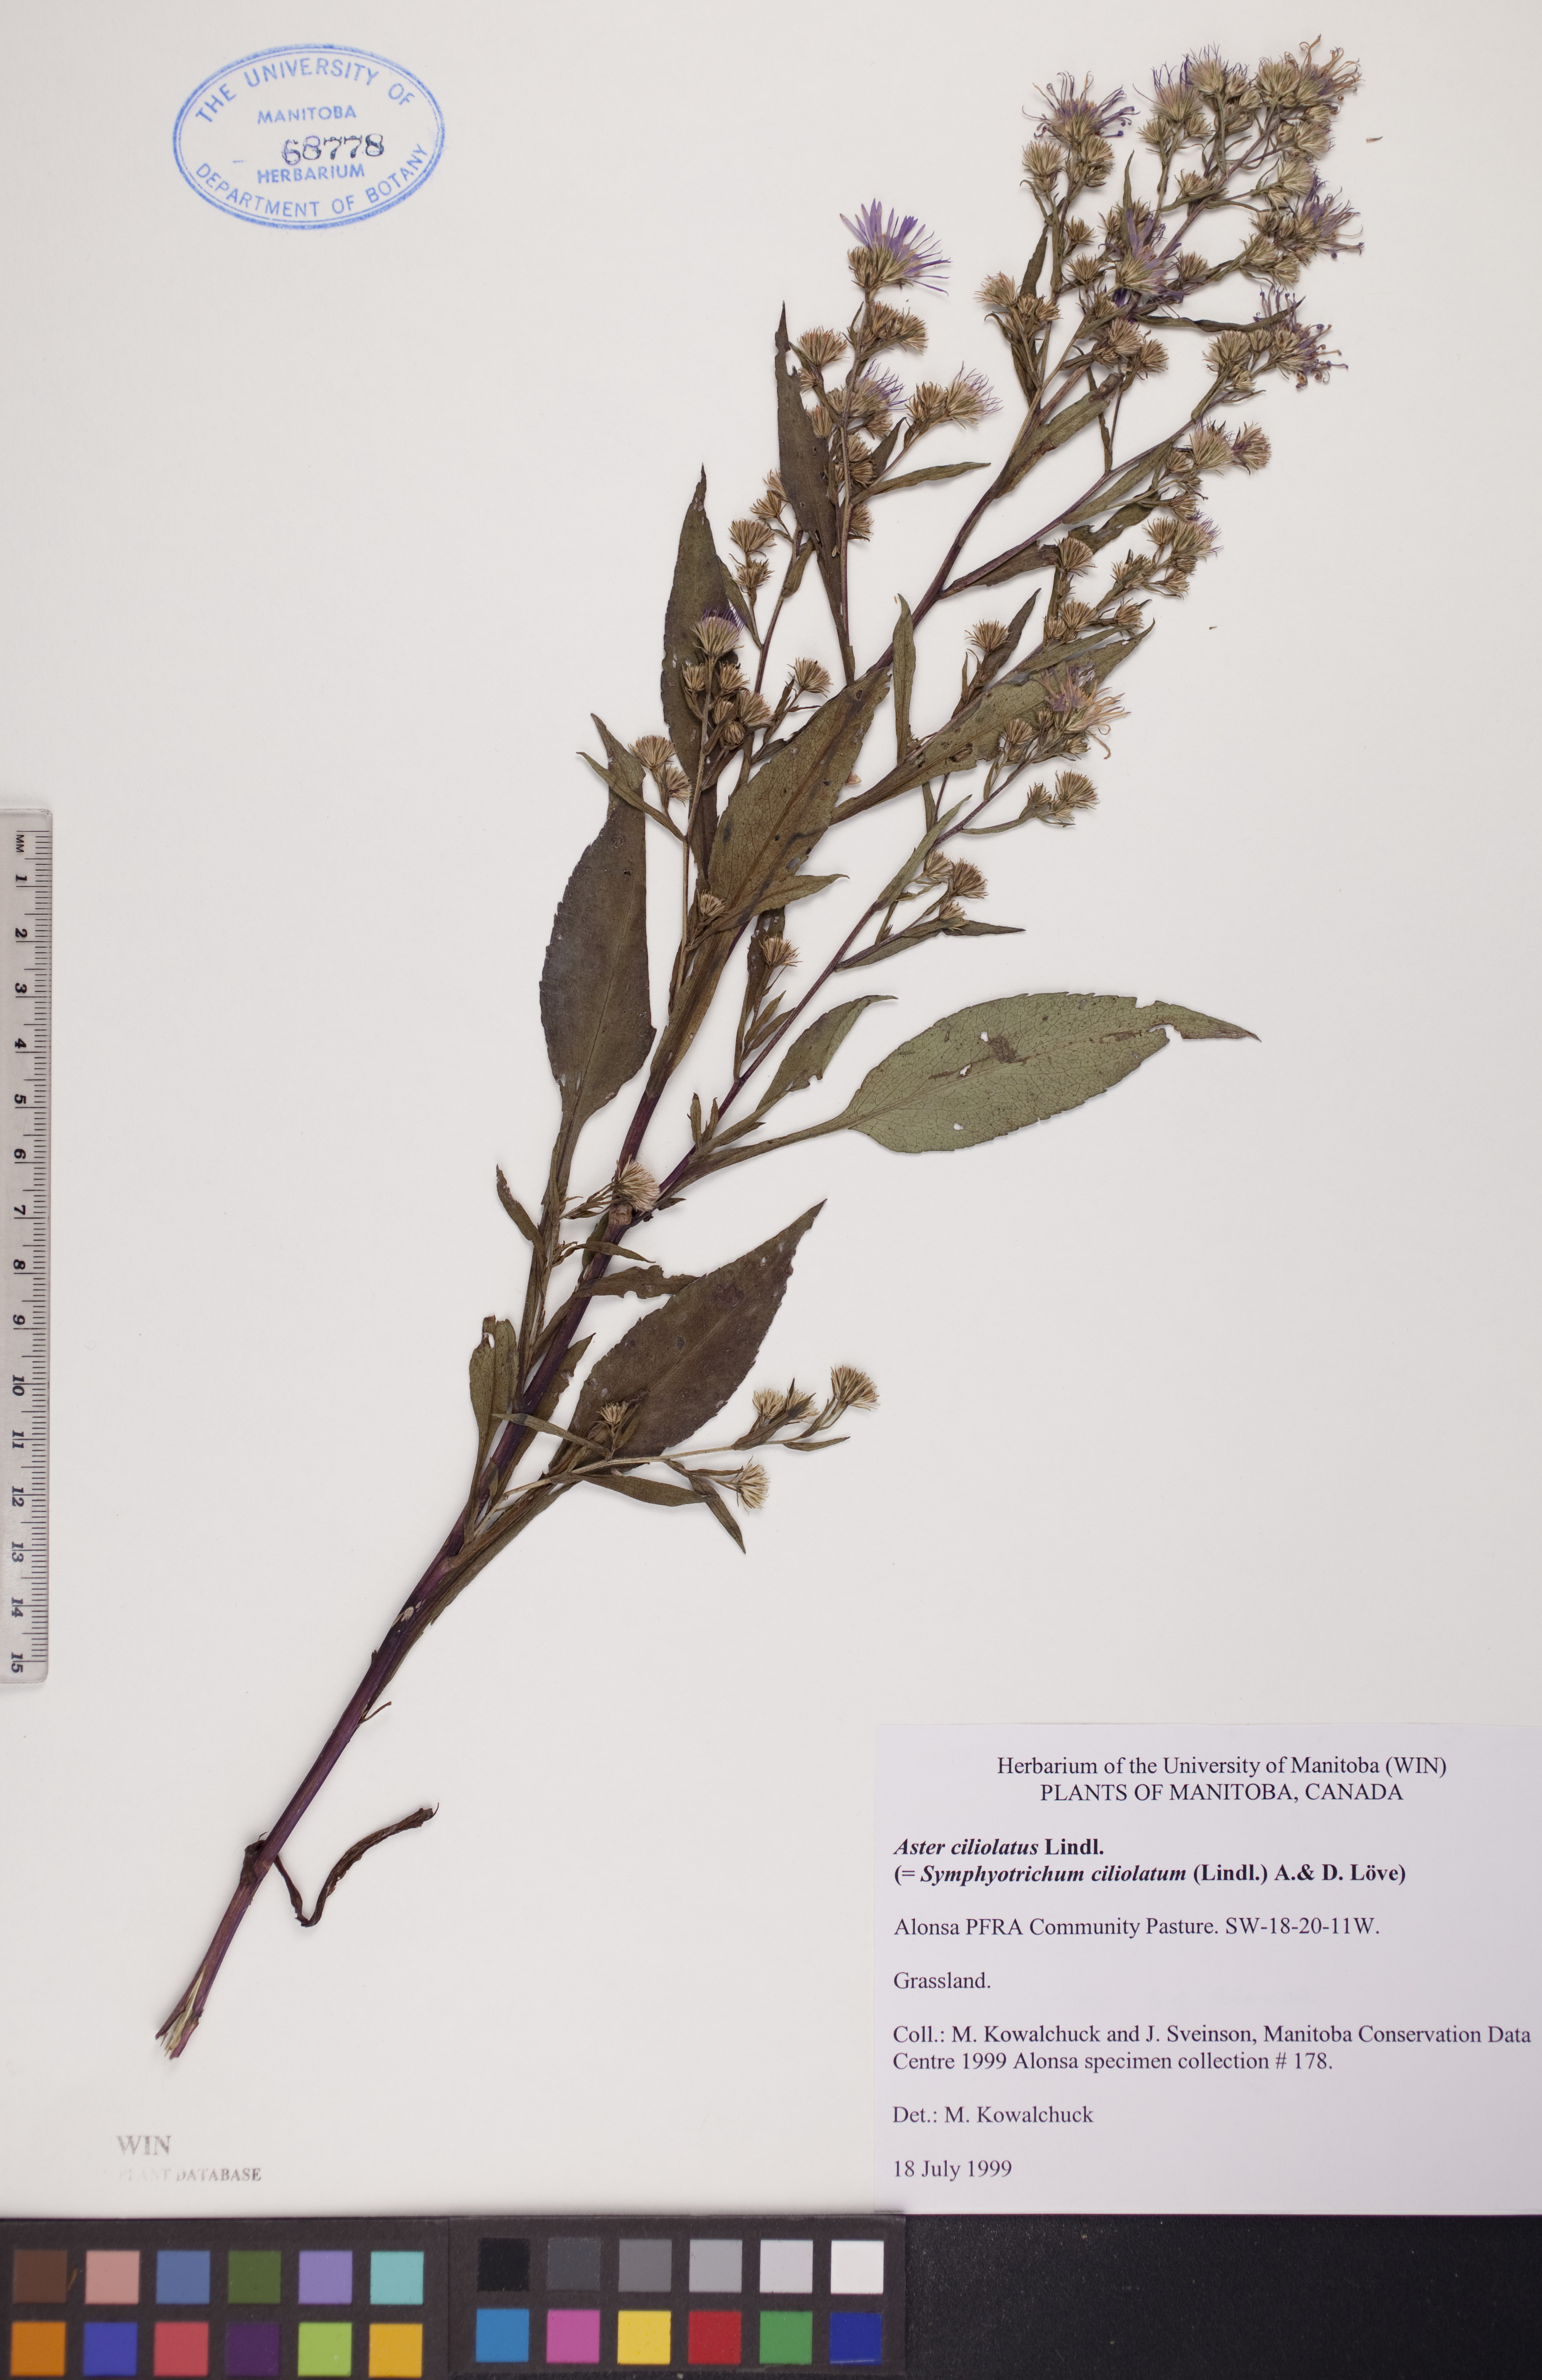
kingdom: Plantae
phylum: Tracheophyta
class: Magnoliopsida
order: Asterales
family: Asteraceae
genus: Symphyotrichum
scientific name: Symphyotrichum ciliolatum
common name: Fringed blue aster
